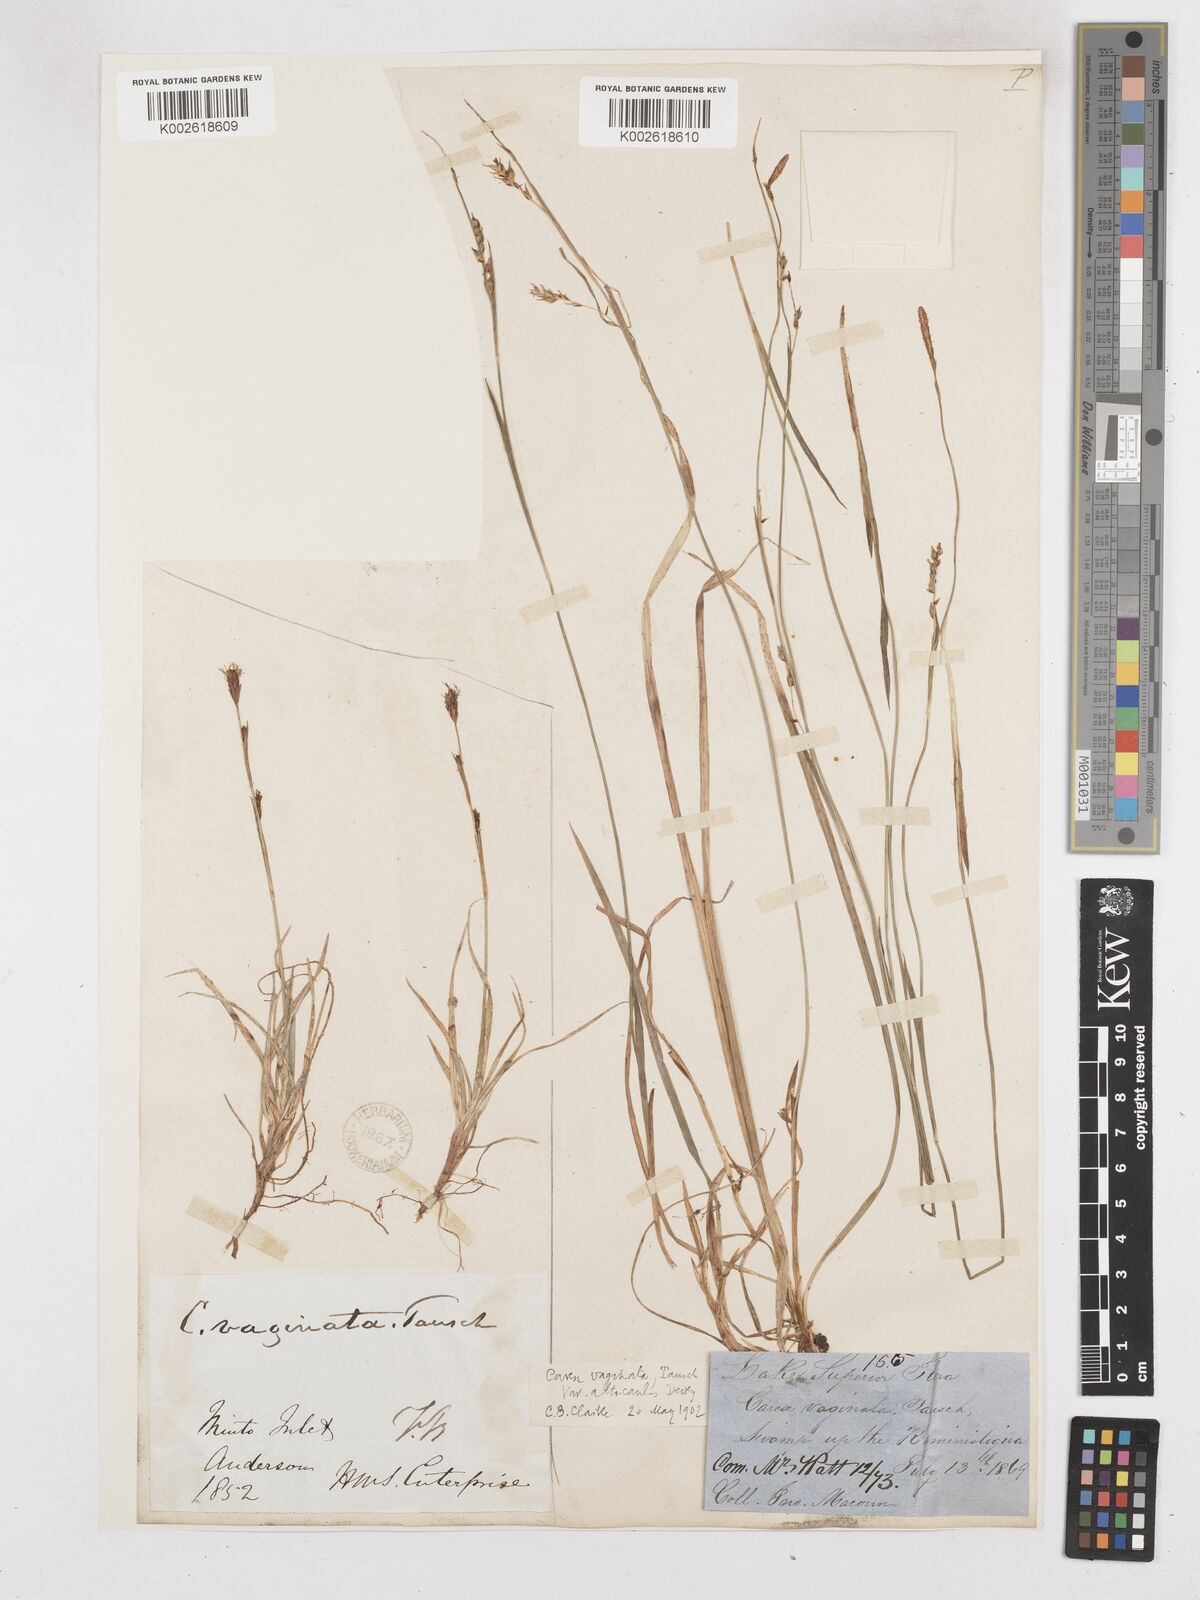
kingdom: Plantae
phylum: Tracheophyta
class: Liliopsida
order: Poales
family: Cyperaceae
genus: Carex
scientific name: Carex vaginata
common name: Sheathed sedge
